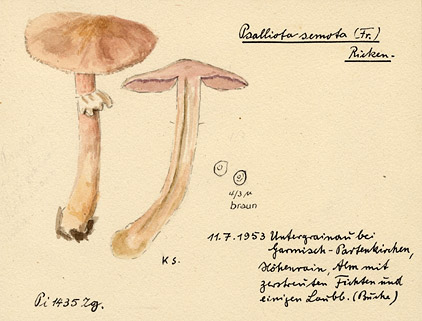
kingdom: Fungi
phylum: Basidiomycota
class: Agaricomycetes
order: Agaricales
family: Agaricaceae
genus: Agaricus
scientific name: Agaricus semotus
